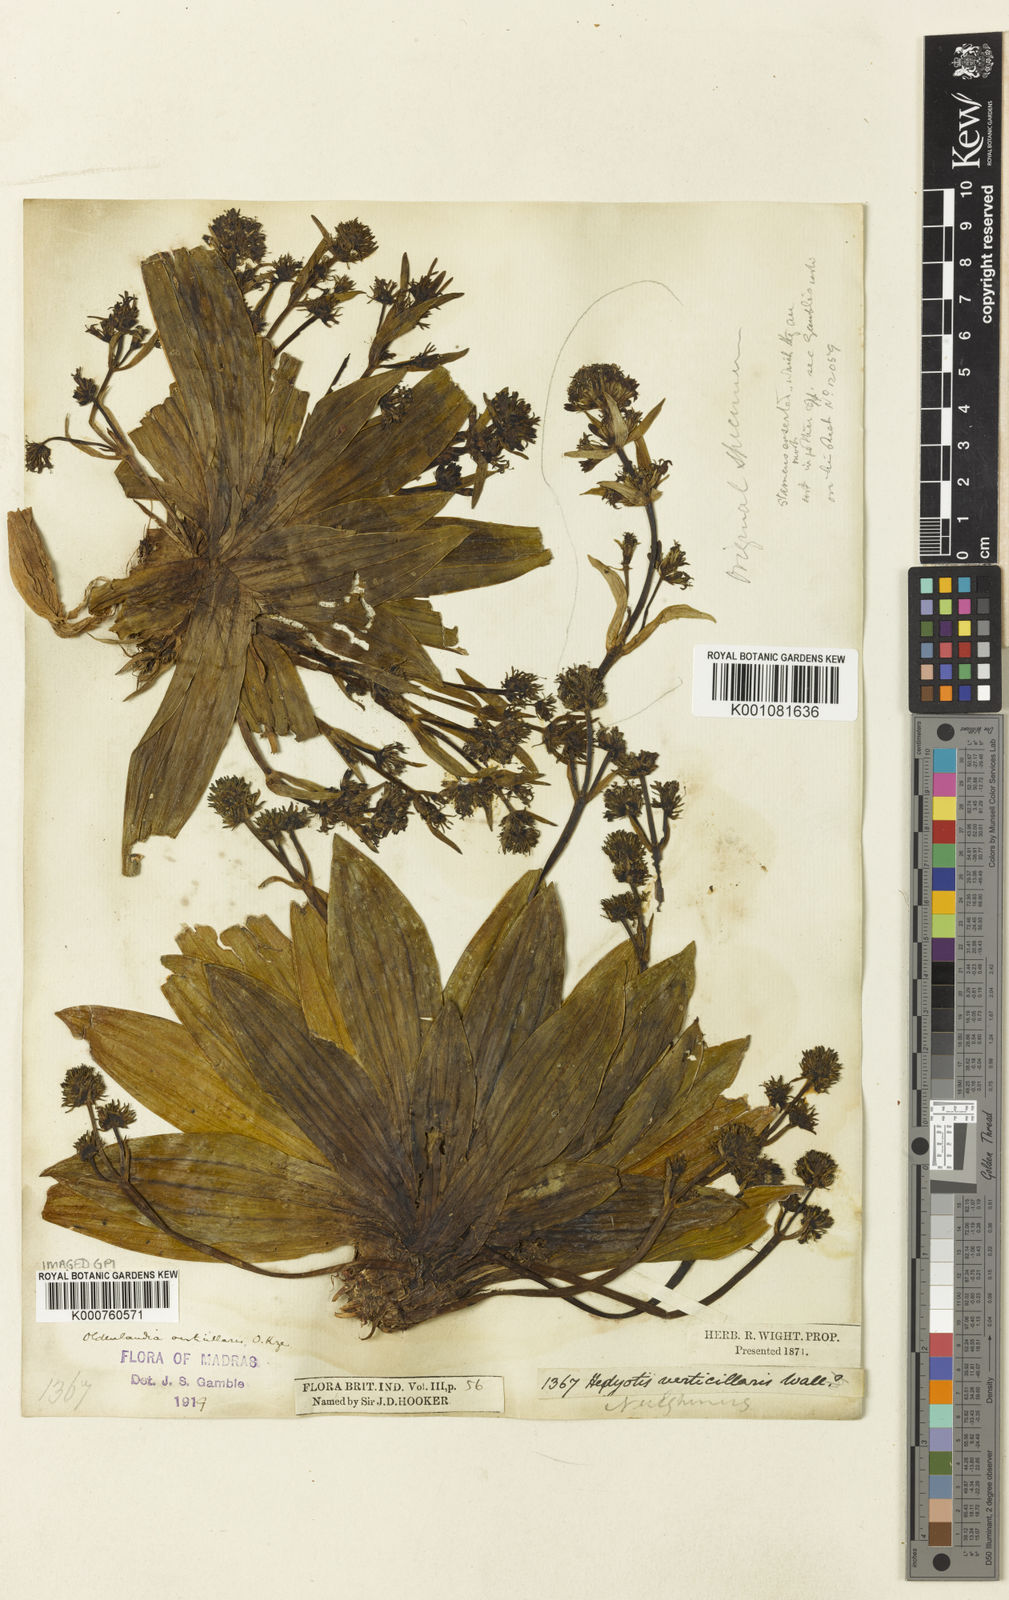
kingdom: Plantae
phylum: Tracheophyta
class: Magnoliopsida
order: Gentianales
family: Rubiaceae
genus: Hedyotis
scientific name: Hedyotis verticillaris
